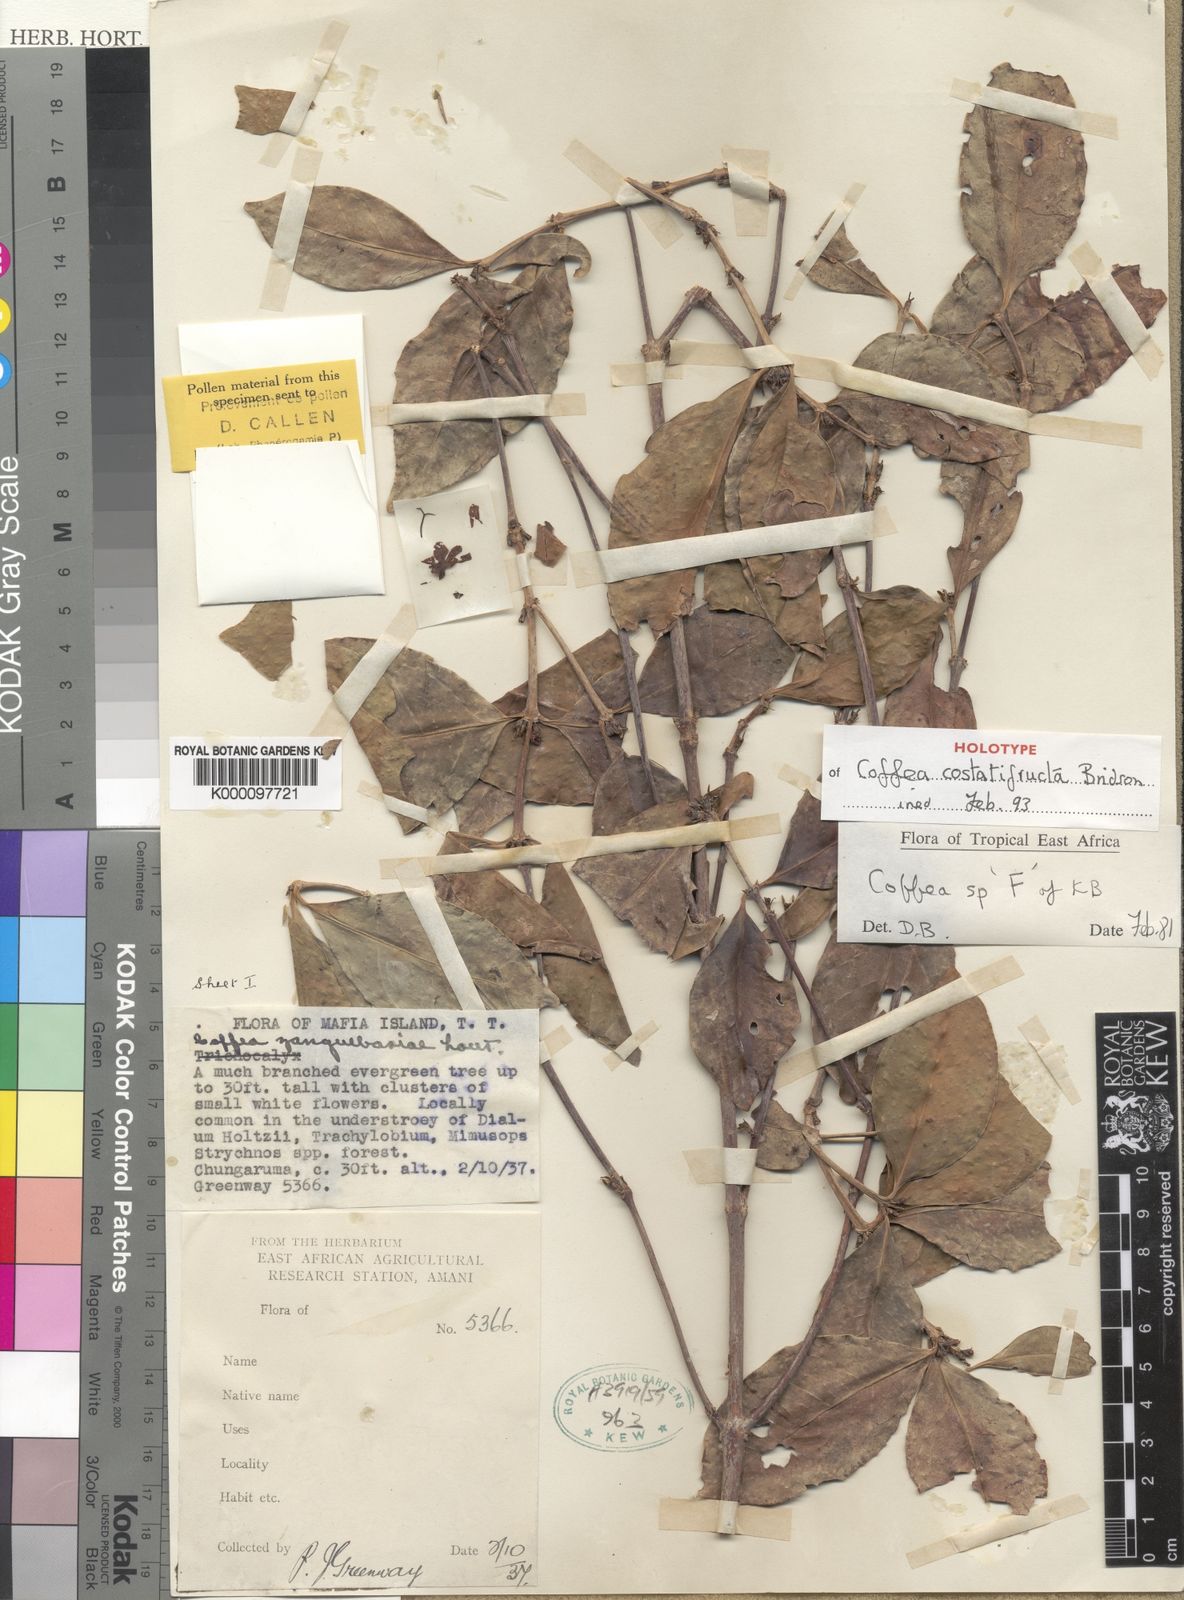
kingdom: Plantae
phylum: Tracheophyta
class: Magnoliopsida
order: Gentianales
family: Rubiaceae
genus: Coffea
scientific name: Coffea costatifructa
